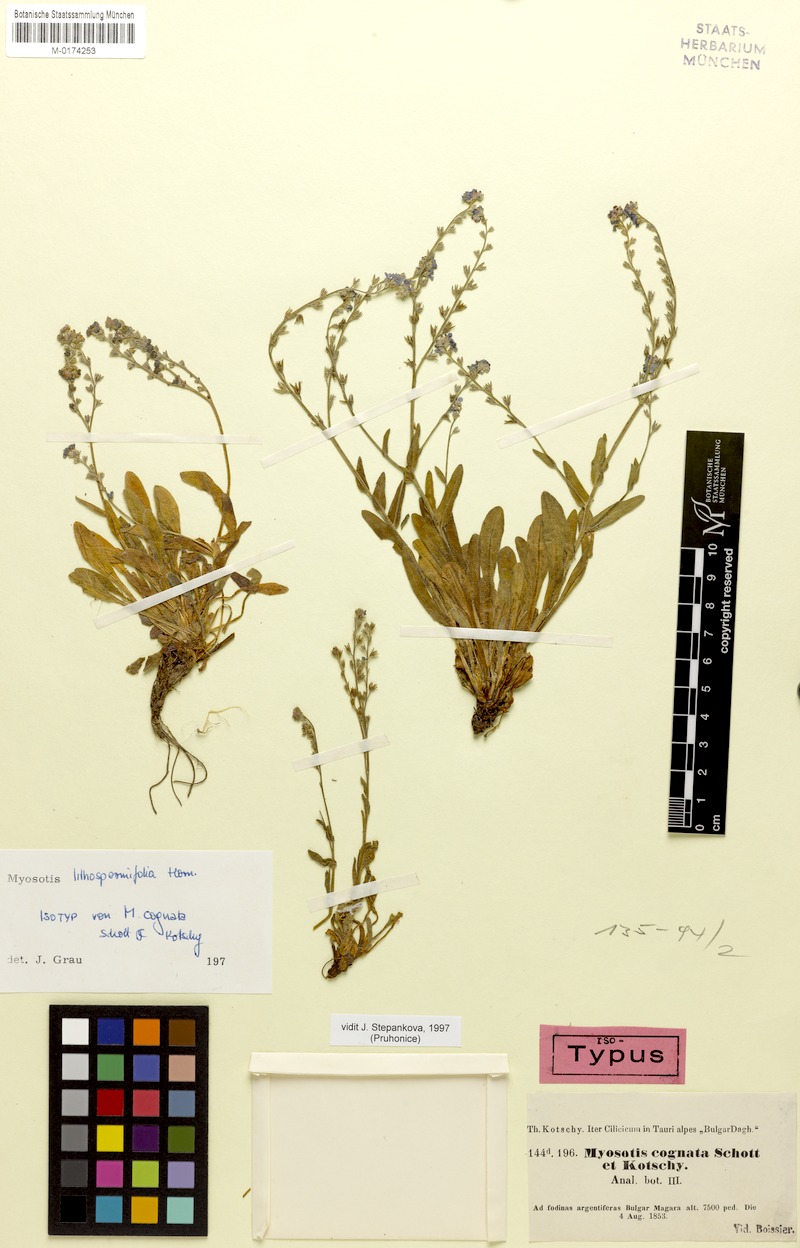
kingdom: Plantae
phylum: Tracheophyta
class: Magnoliopsida
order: Boraginales
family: Boraginaceae
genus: Myosotis
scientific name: Myosotis lithospermifolia
